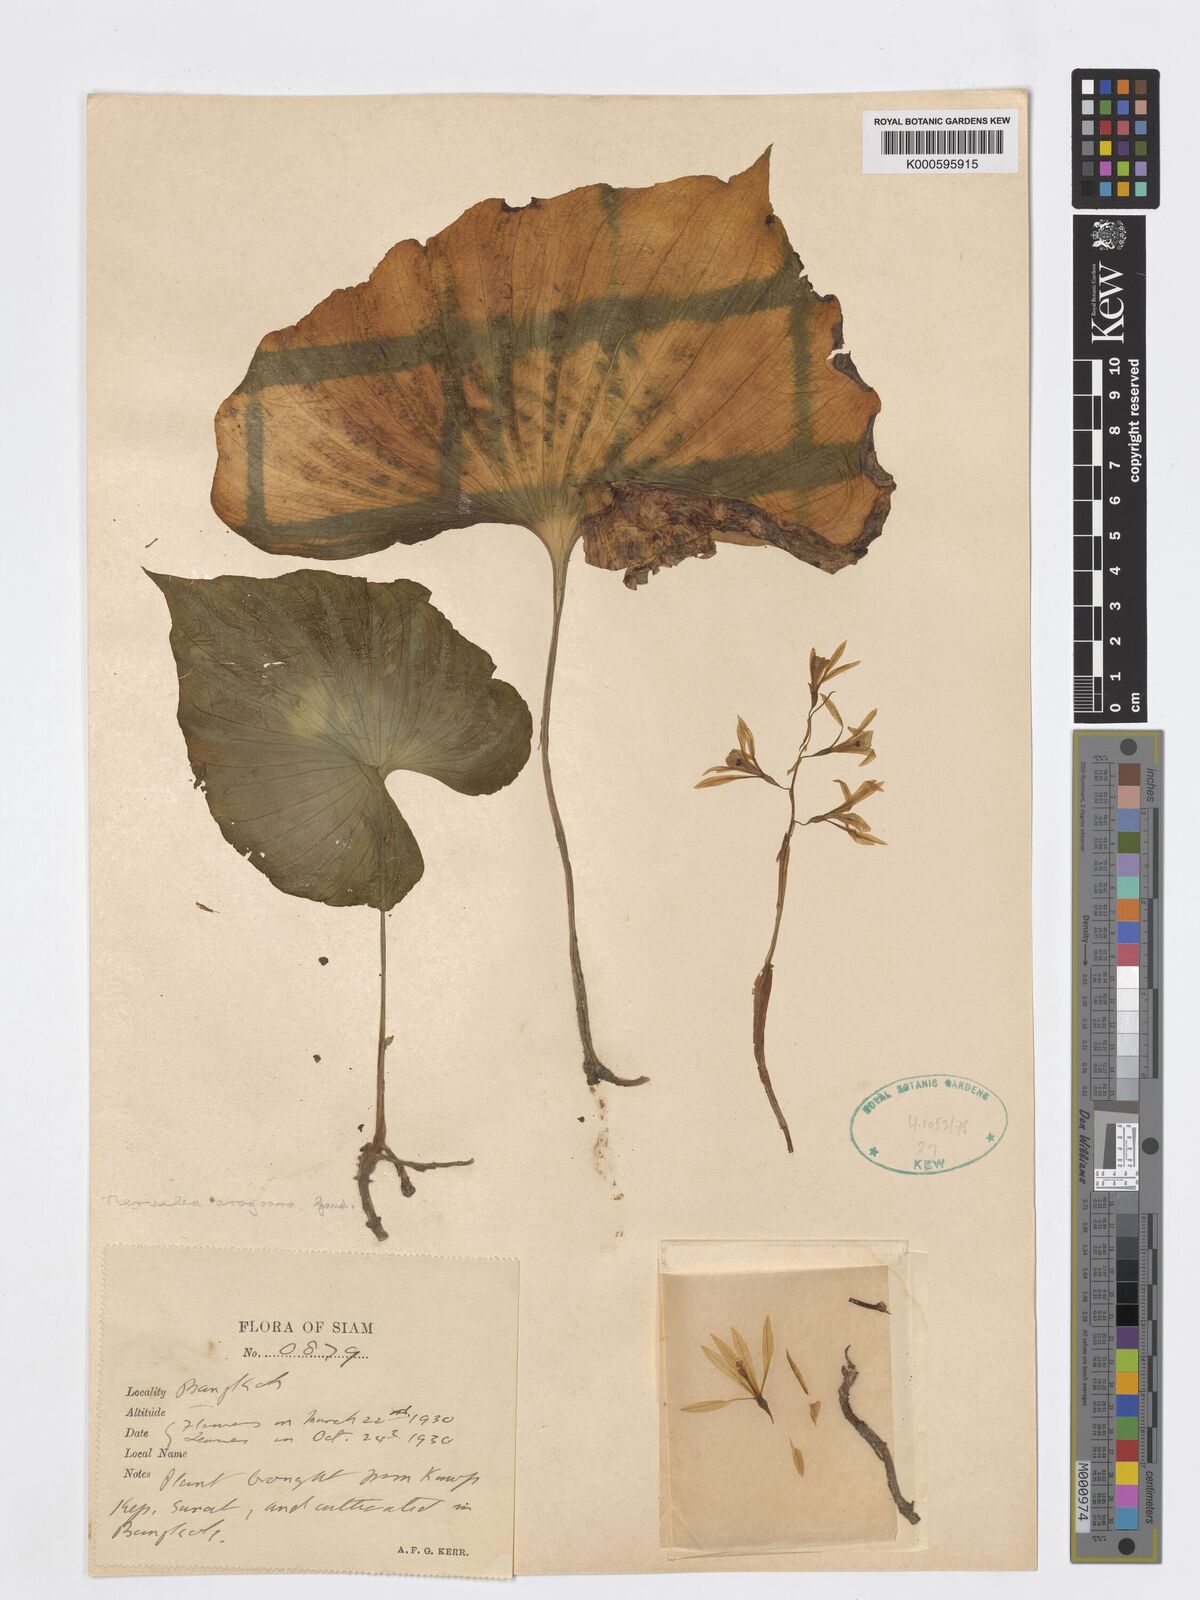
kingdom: Plantae
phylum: Tracheophyta
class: Liliopsida
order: Asparagales
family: Orchidaceae
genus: Nervilia
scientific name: Nervilia concolor
